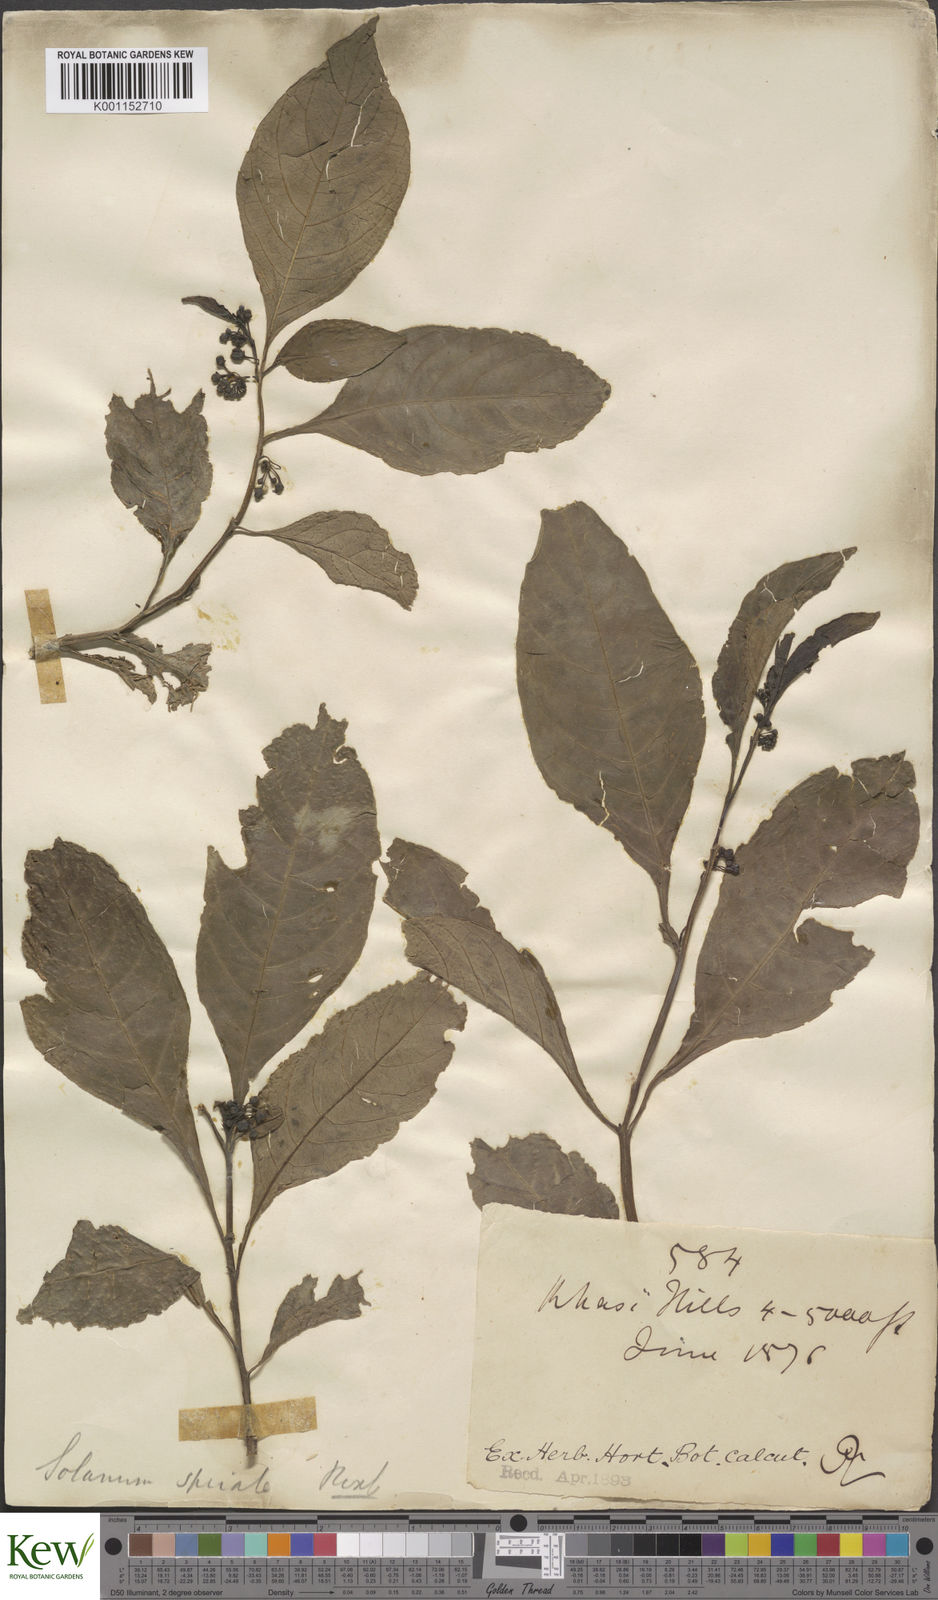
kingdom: Plantae
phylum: Tracheophyta
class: Magnoliopsida
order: Solanales
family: Solanaceae
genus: Solanum
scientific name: Solanum spirale
